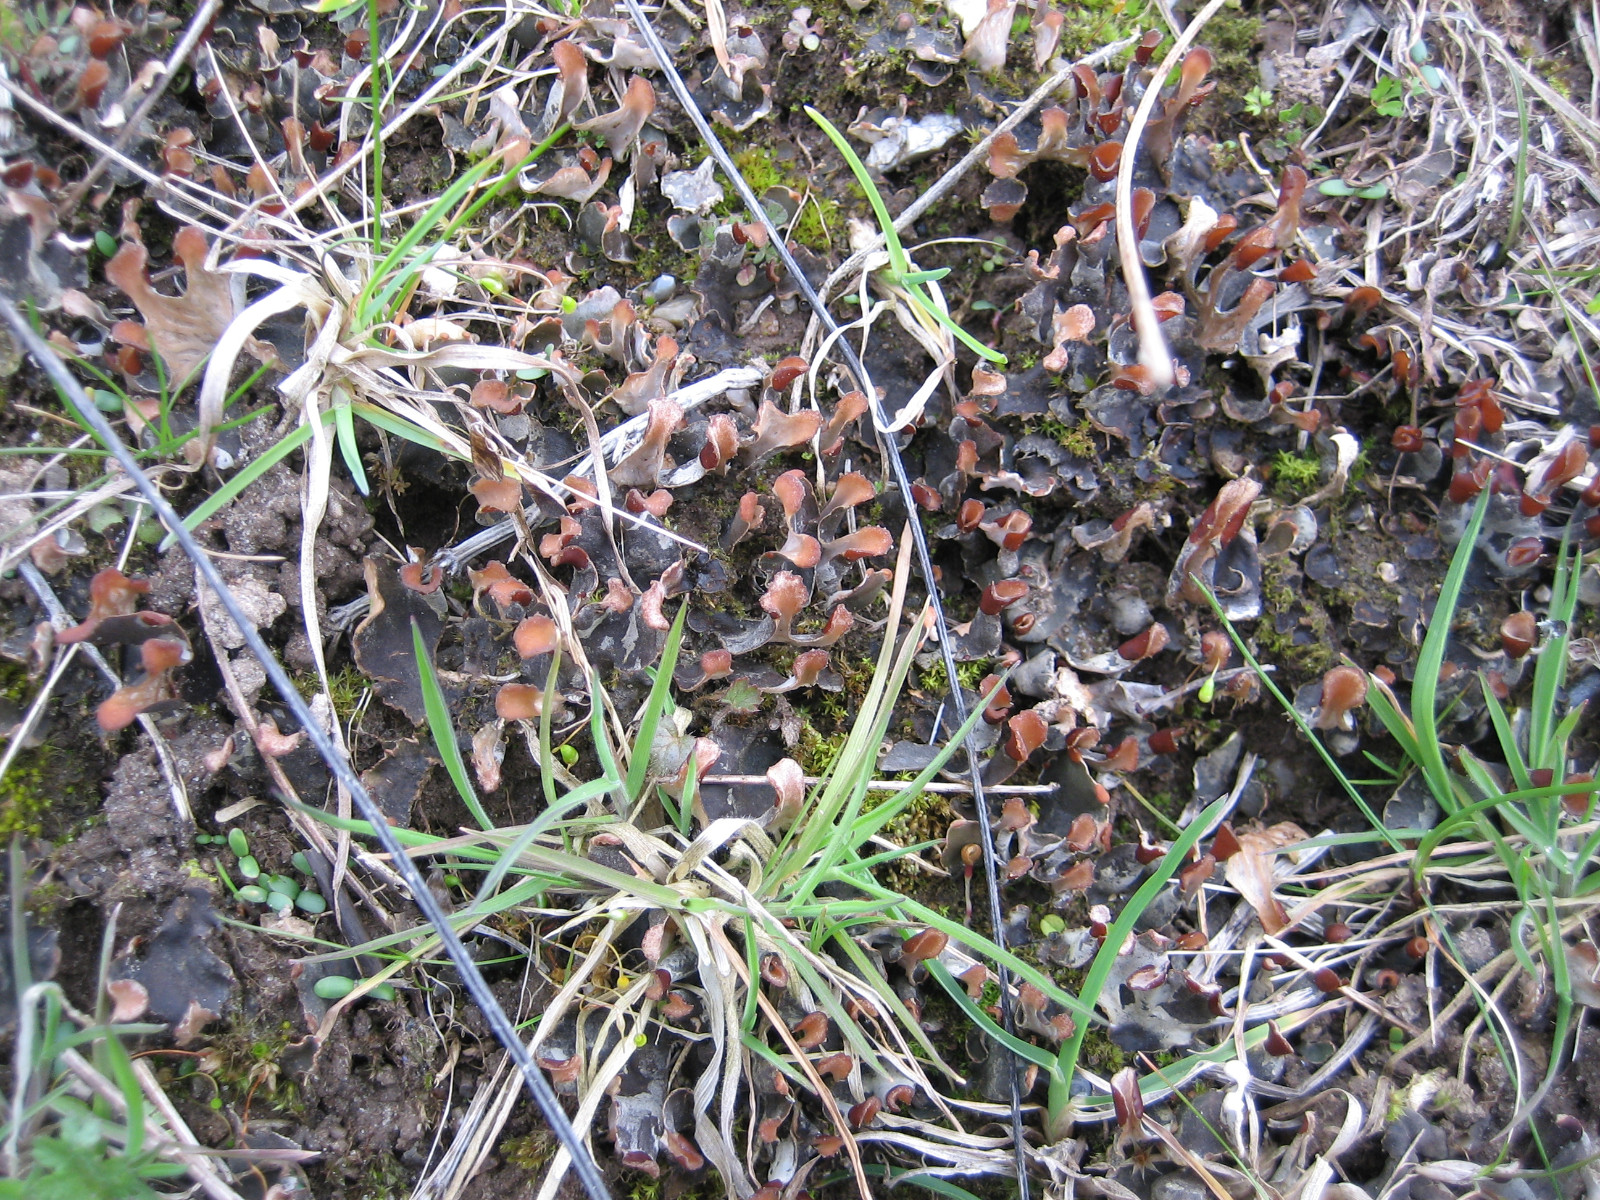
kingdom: Fungi
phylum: Ascomycota
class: Lecanoromycetes
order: Peltigerales
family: Peltigeraceae
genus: Peltigera
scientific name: Peltigera didactyla
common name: liden skjoldlav
